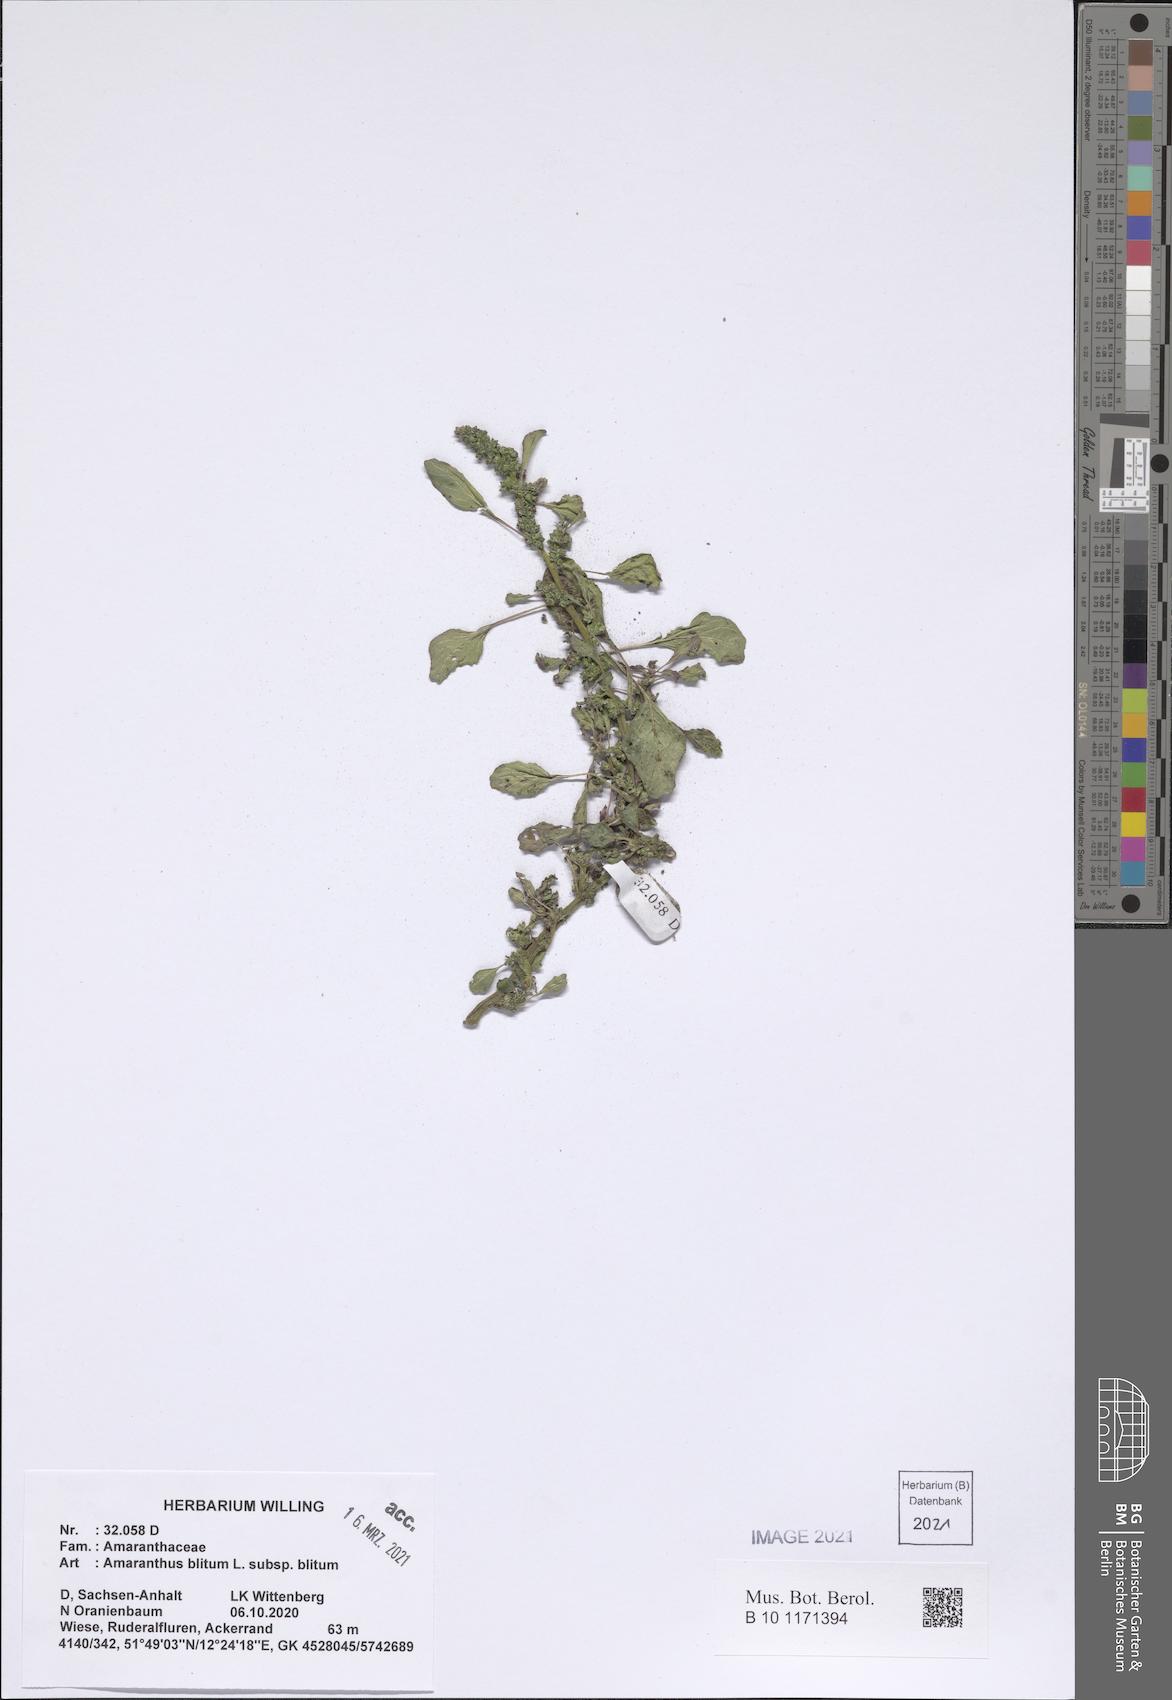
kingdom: Plantae
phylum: Tracheophyta
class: Magnoliopsida
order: Caryophyllales
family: Amaranthaceae
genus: Amaranthus
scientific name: Amaranthus
